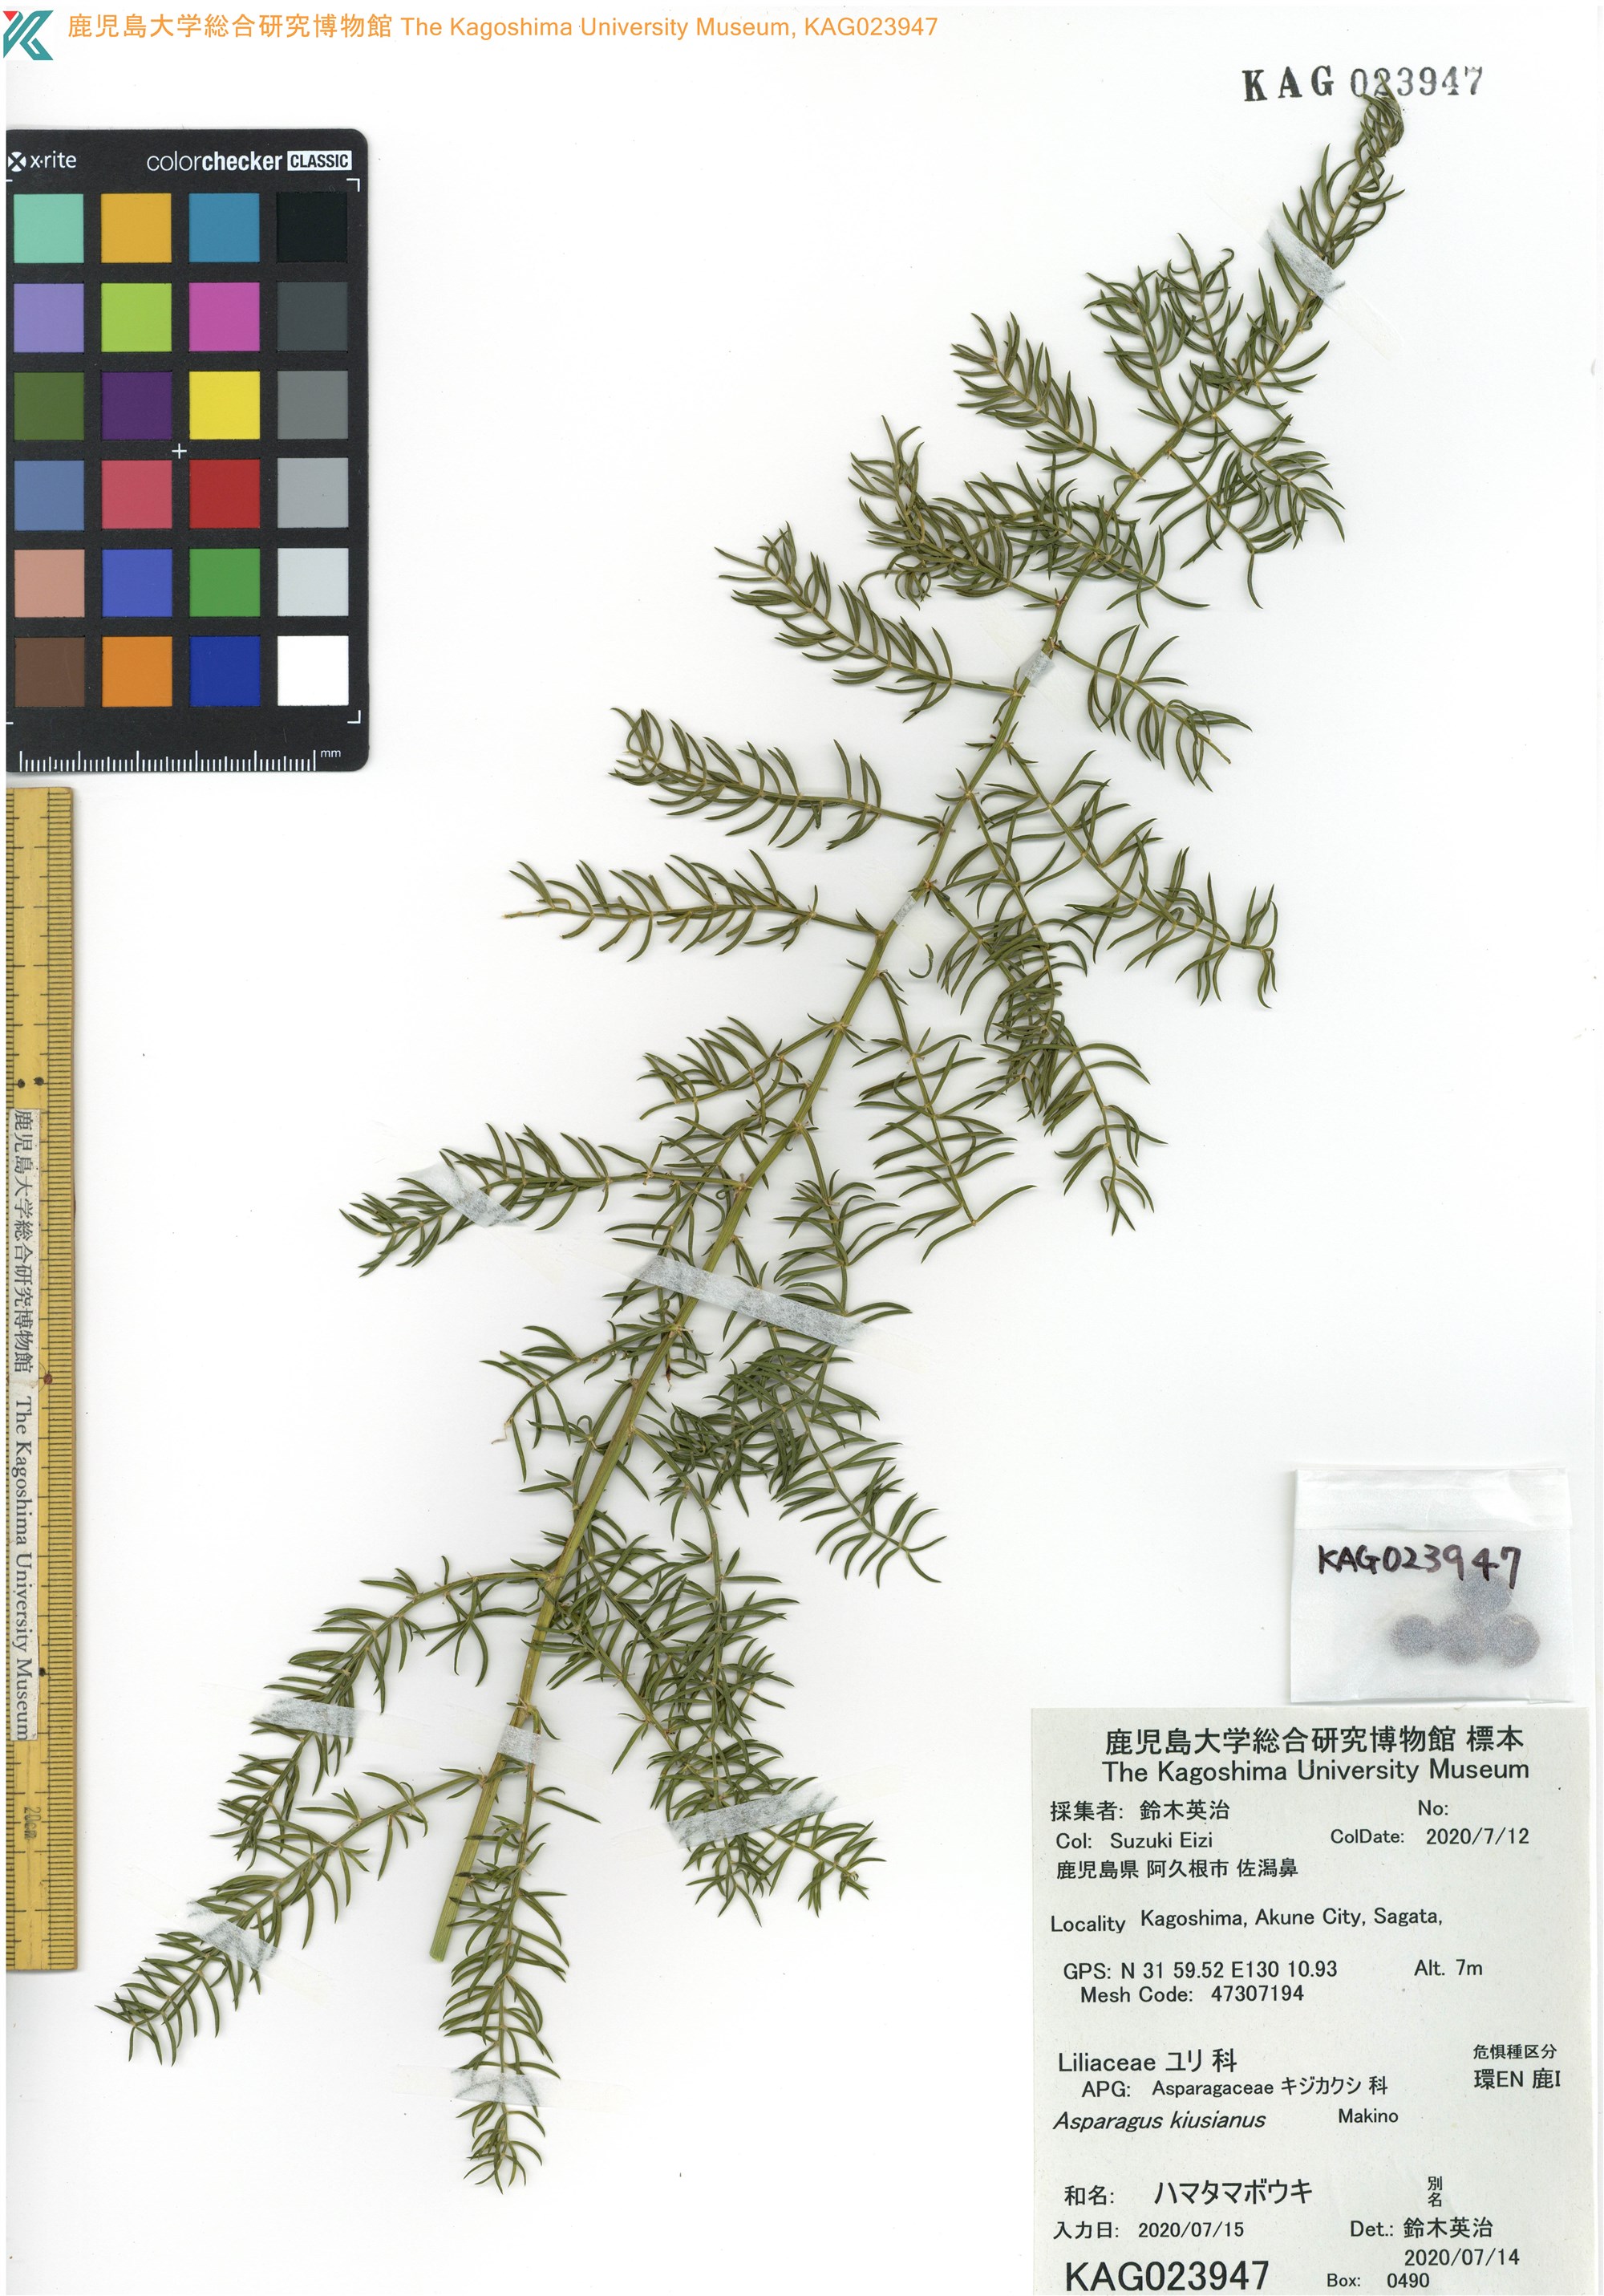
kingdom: Plantae
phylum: Tracheophyta
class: Liliopsida
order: Asparagales
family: Asparagaceae
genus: Asparagus
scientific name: Asparagus kiusianus
